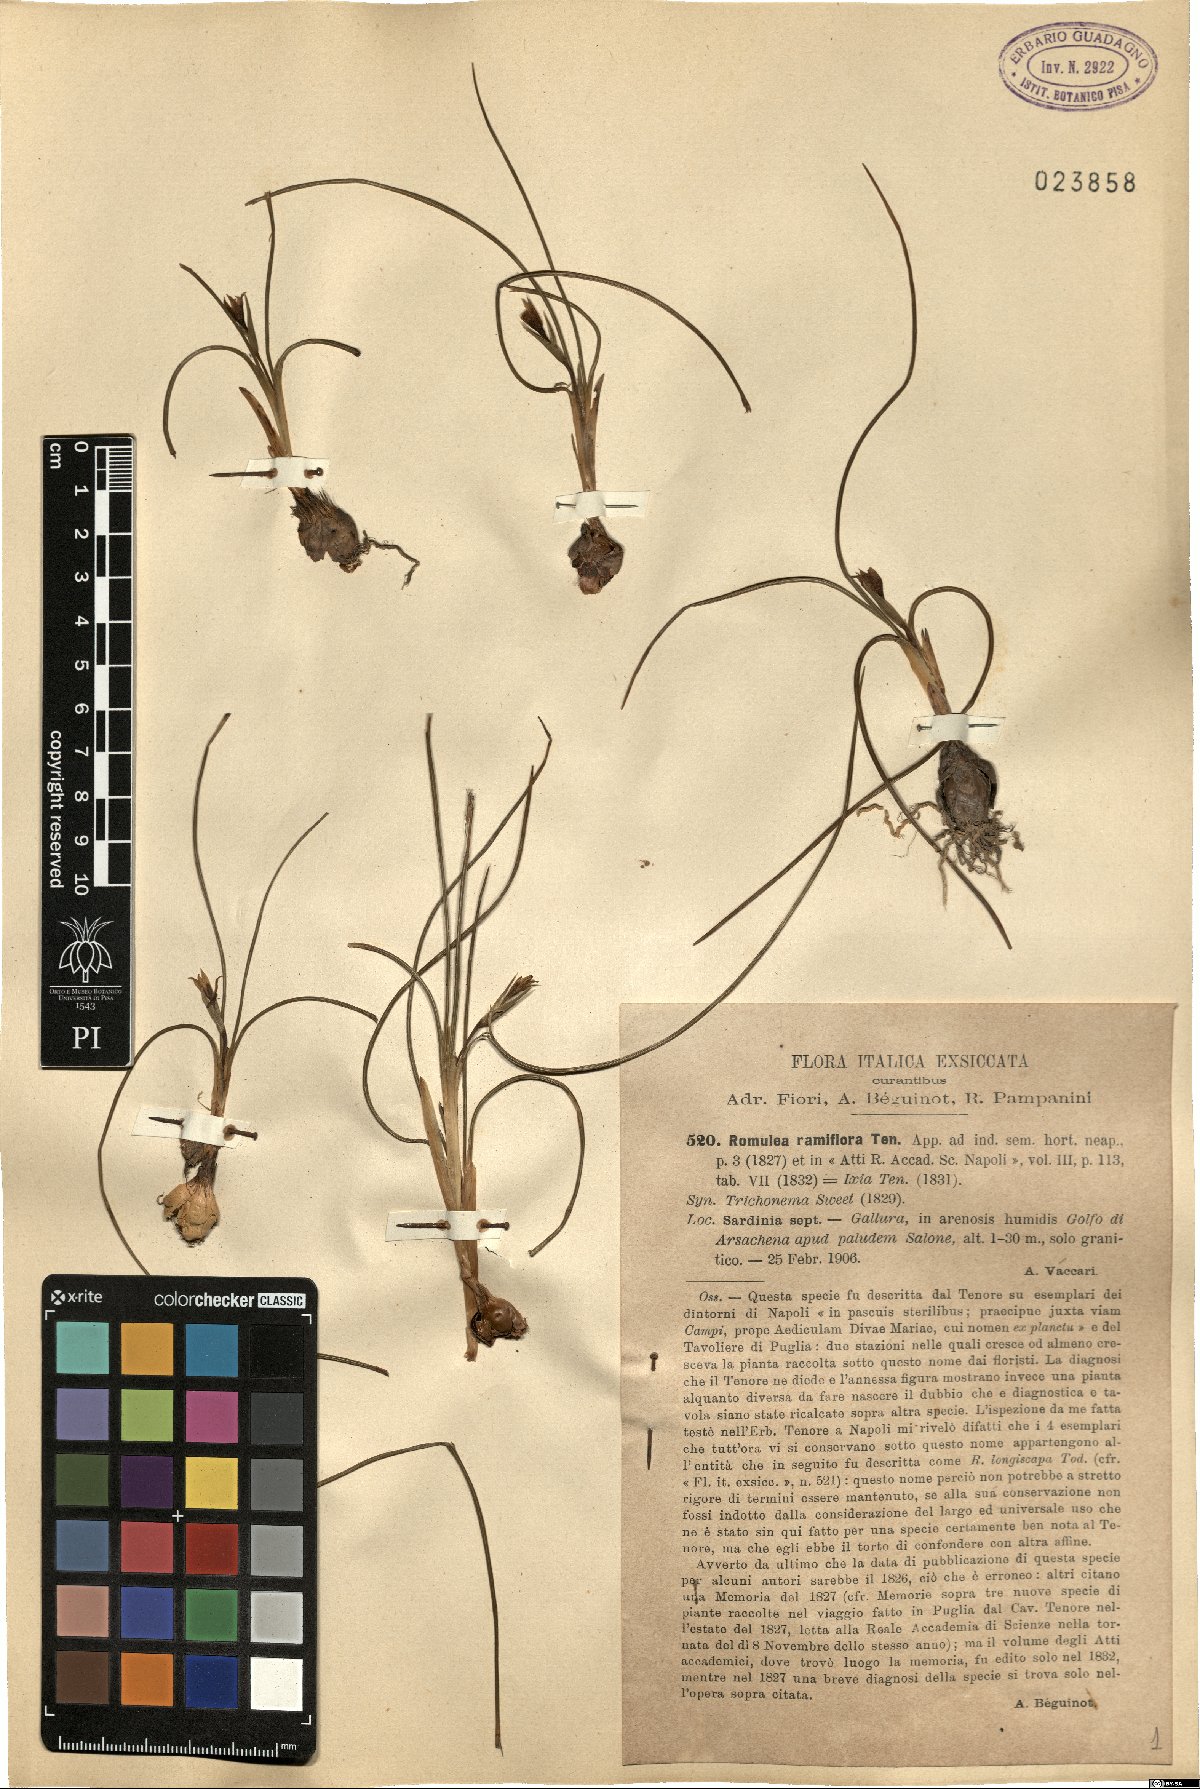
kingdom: Plantae
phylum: Tracheophyta
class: Liliopsida
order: Asparagales
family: Iridaceae
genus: Romulea
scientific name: Romulea ramiflora
